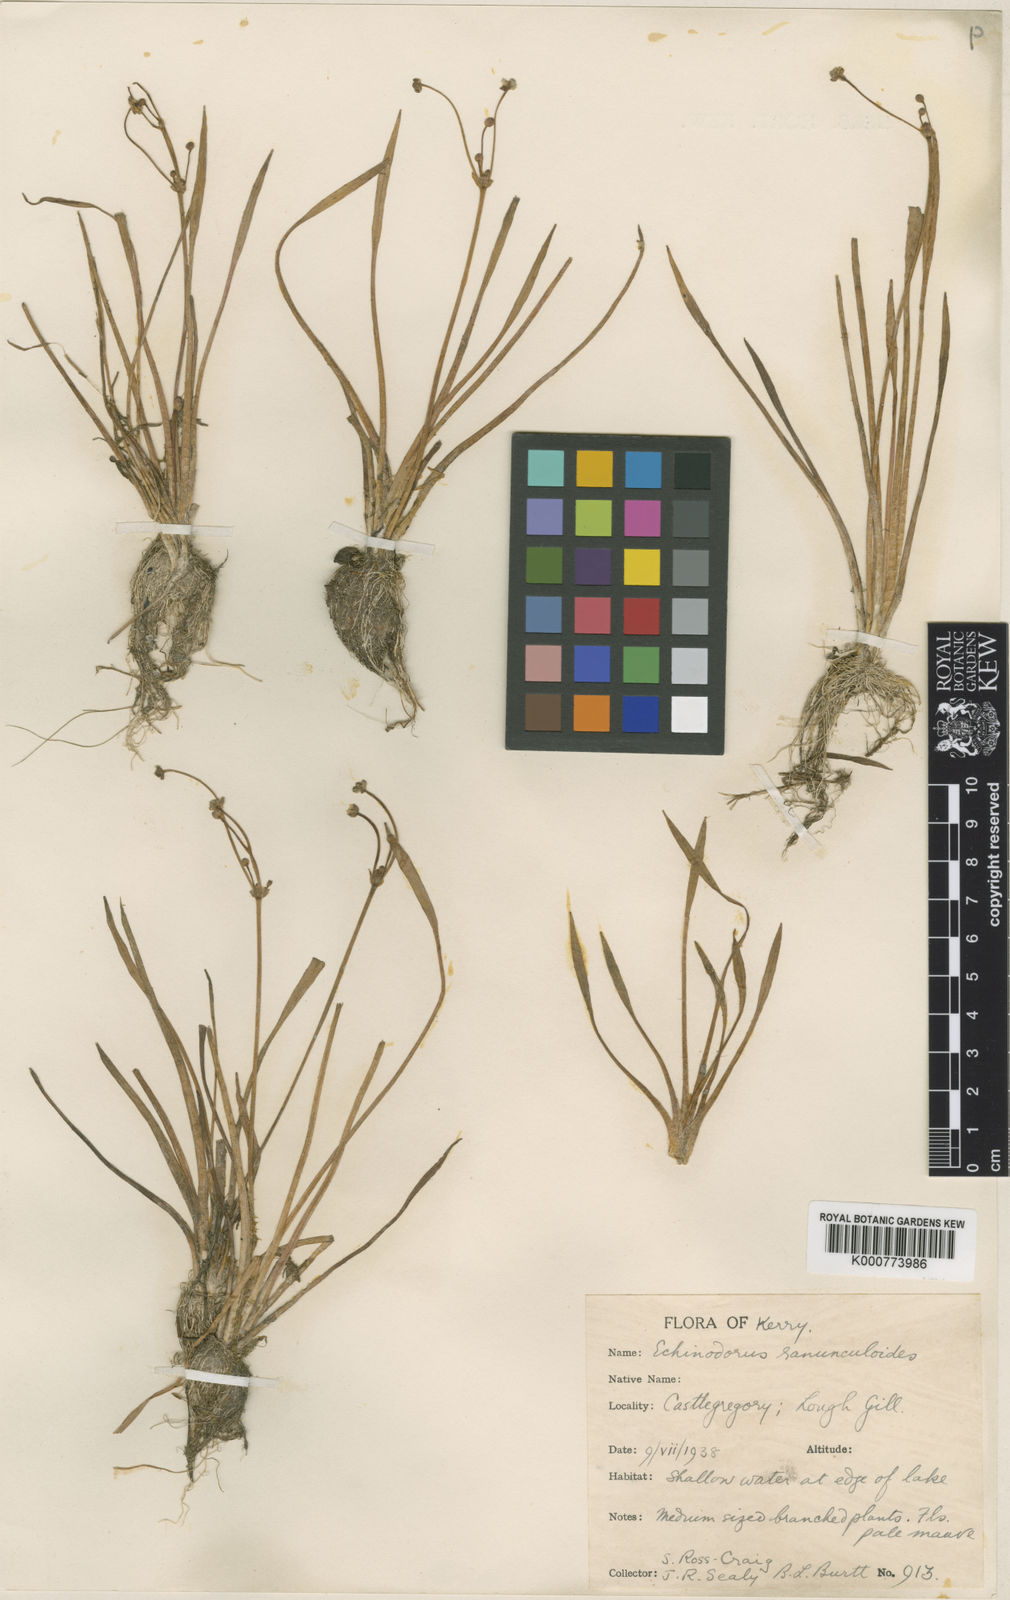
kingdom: Plantae
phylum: Tracheophyta
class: Liliopsida
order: Alismatales
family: Alismataceae
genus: Baldellia
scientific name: Baldellia ranunculoides
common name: Lesser water-plantain
